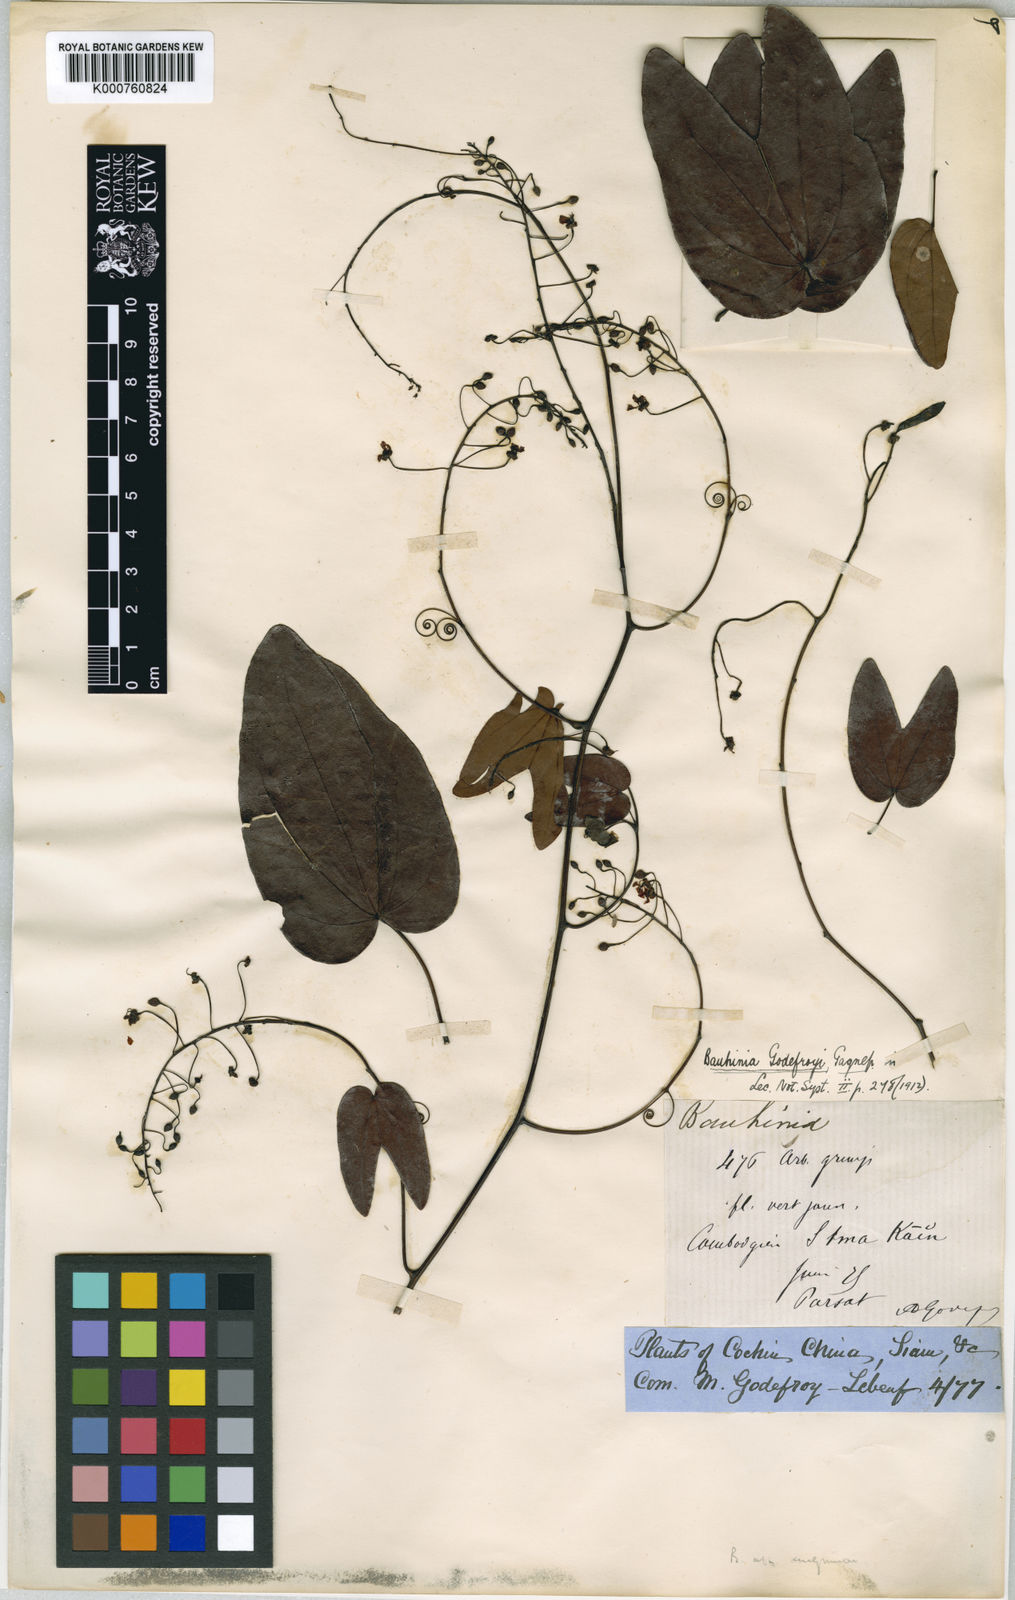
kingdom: Plantae
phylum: Tracheophyta
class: Magnoliopsida
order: Fabales
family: Fabaceae
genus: Bauhinia
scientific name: Bauhinia godefroyi
